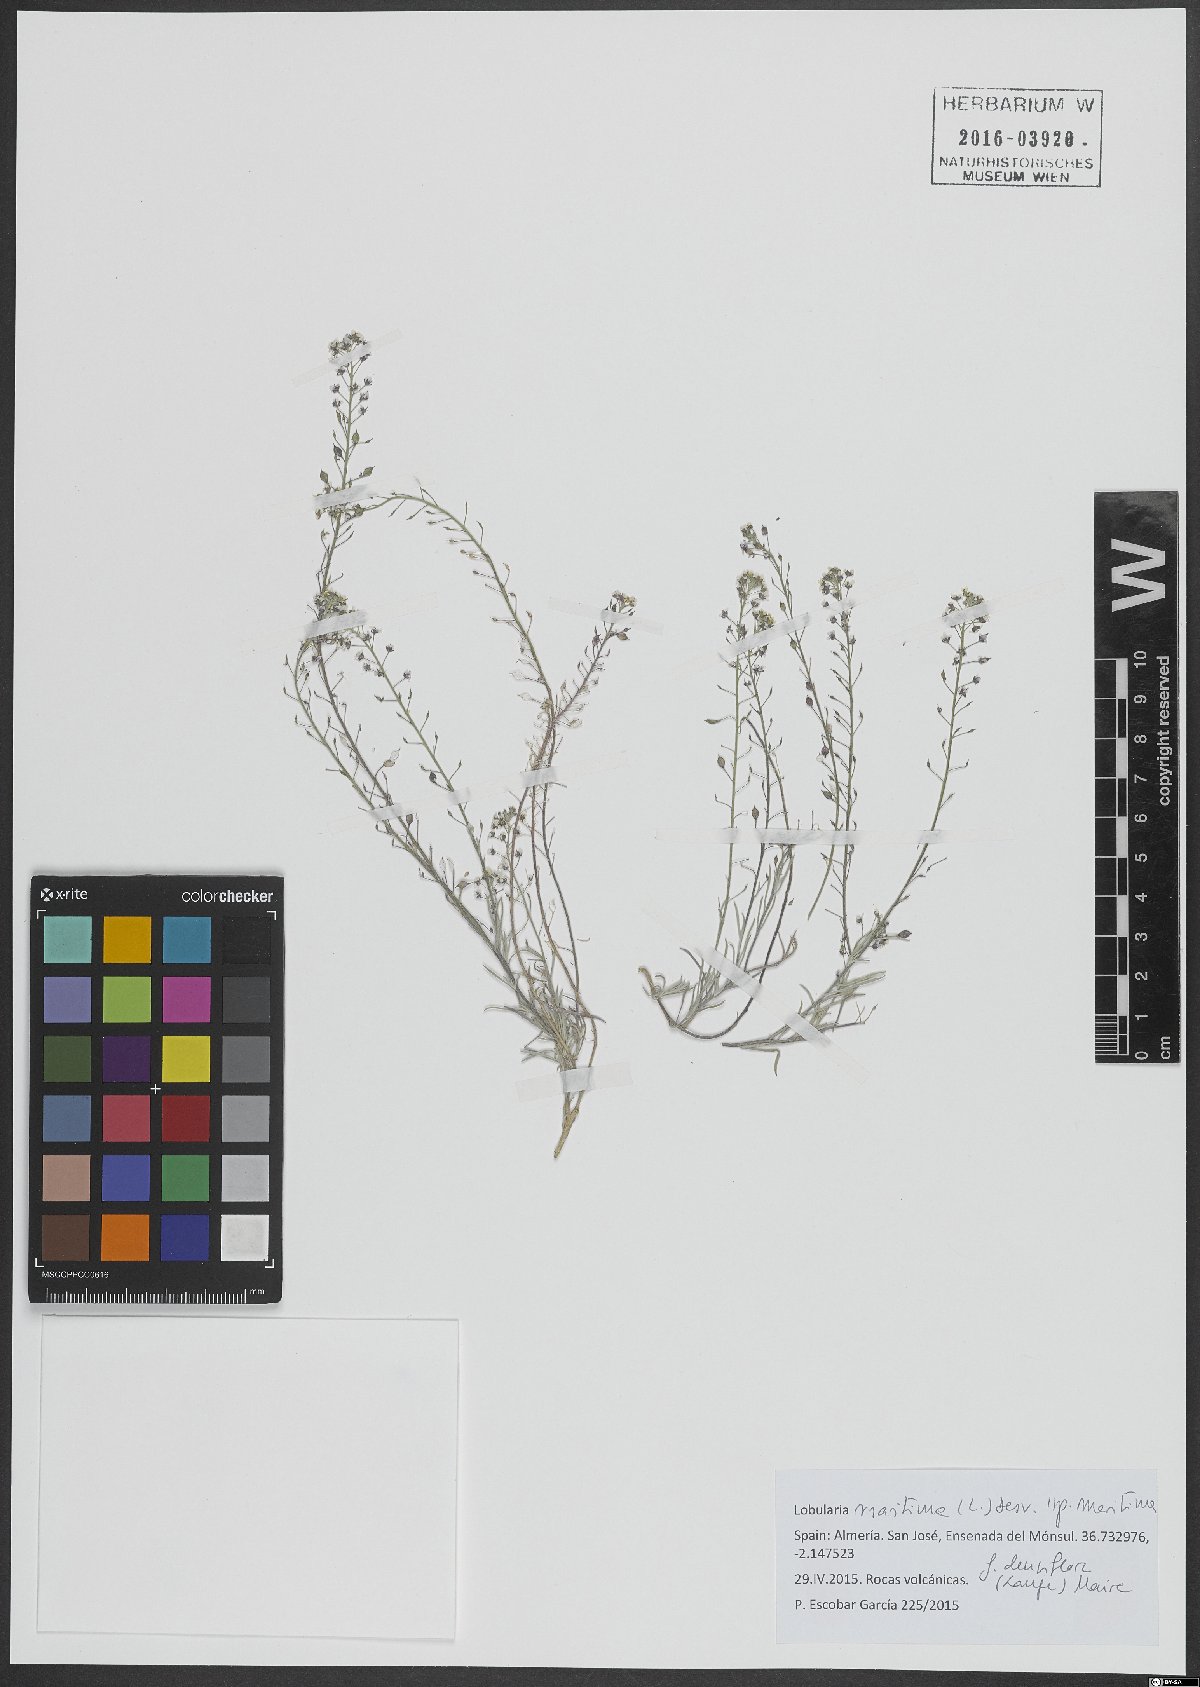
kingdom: Plantae
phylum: Tracheophyta
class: Magnoliopsida
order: Brassicales
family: Brassicaceae
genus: Lobularia
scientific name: Lobularia maritima
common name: Sweet alison
